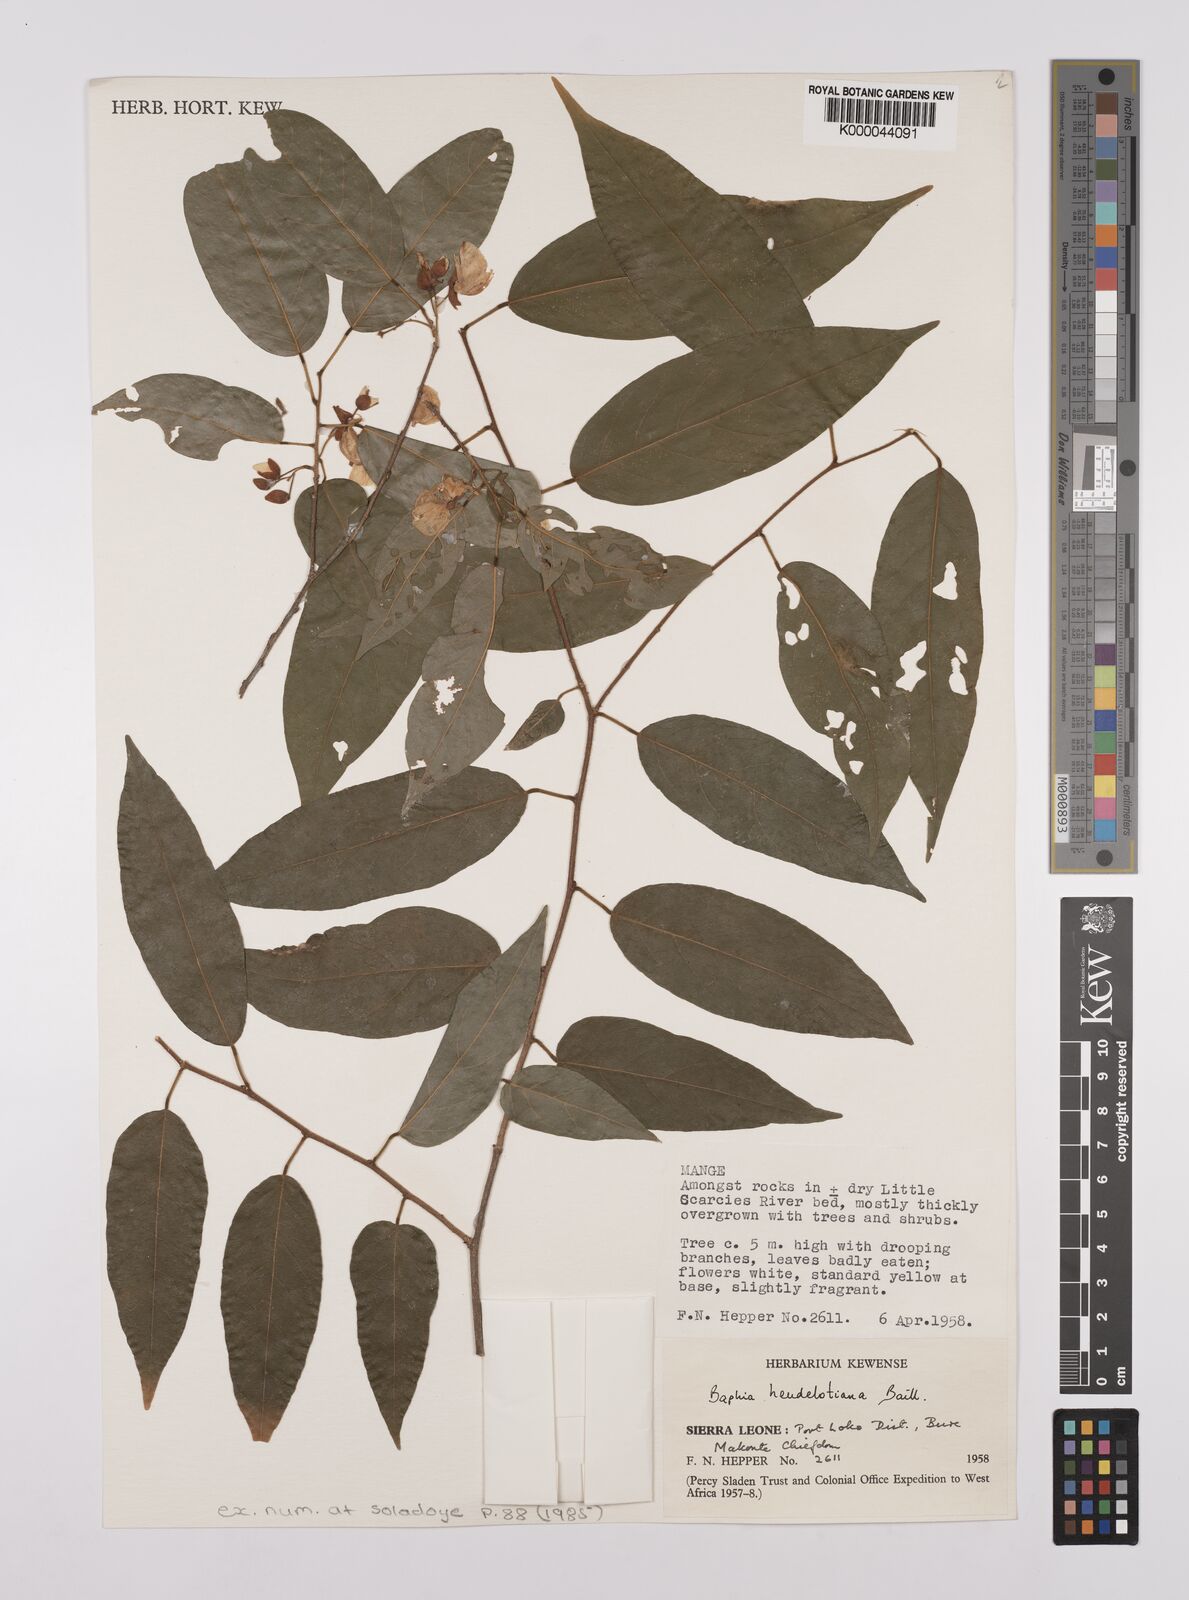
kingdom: Plantae
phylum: Tracheophyta
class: Magnoliopsida
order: Fabales
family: Fabaceae
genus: Baphia
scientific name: Baphia heudelotiana
